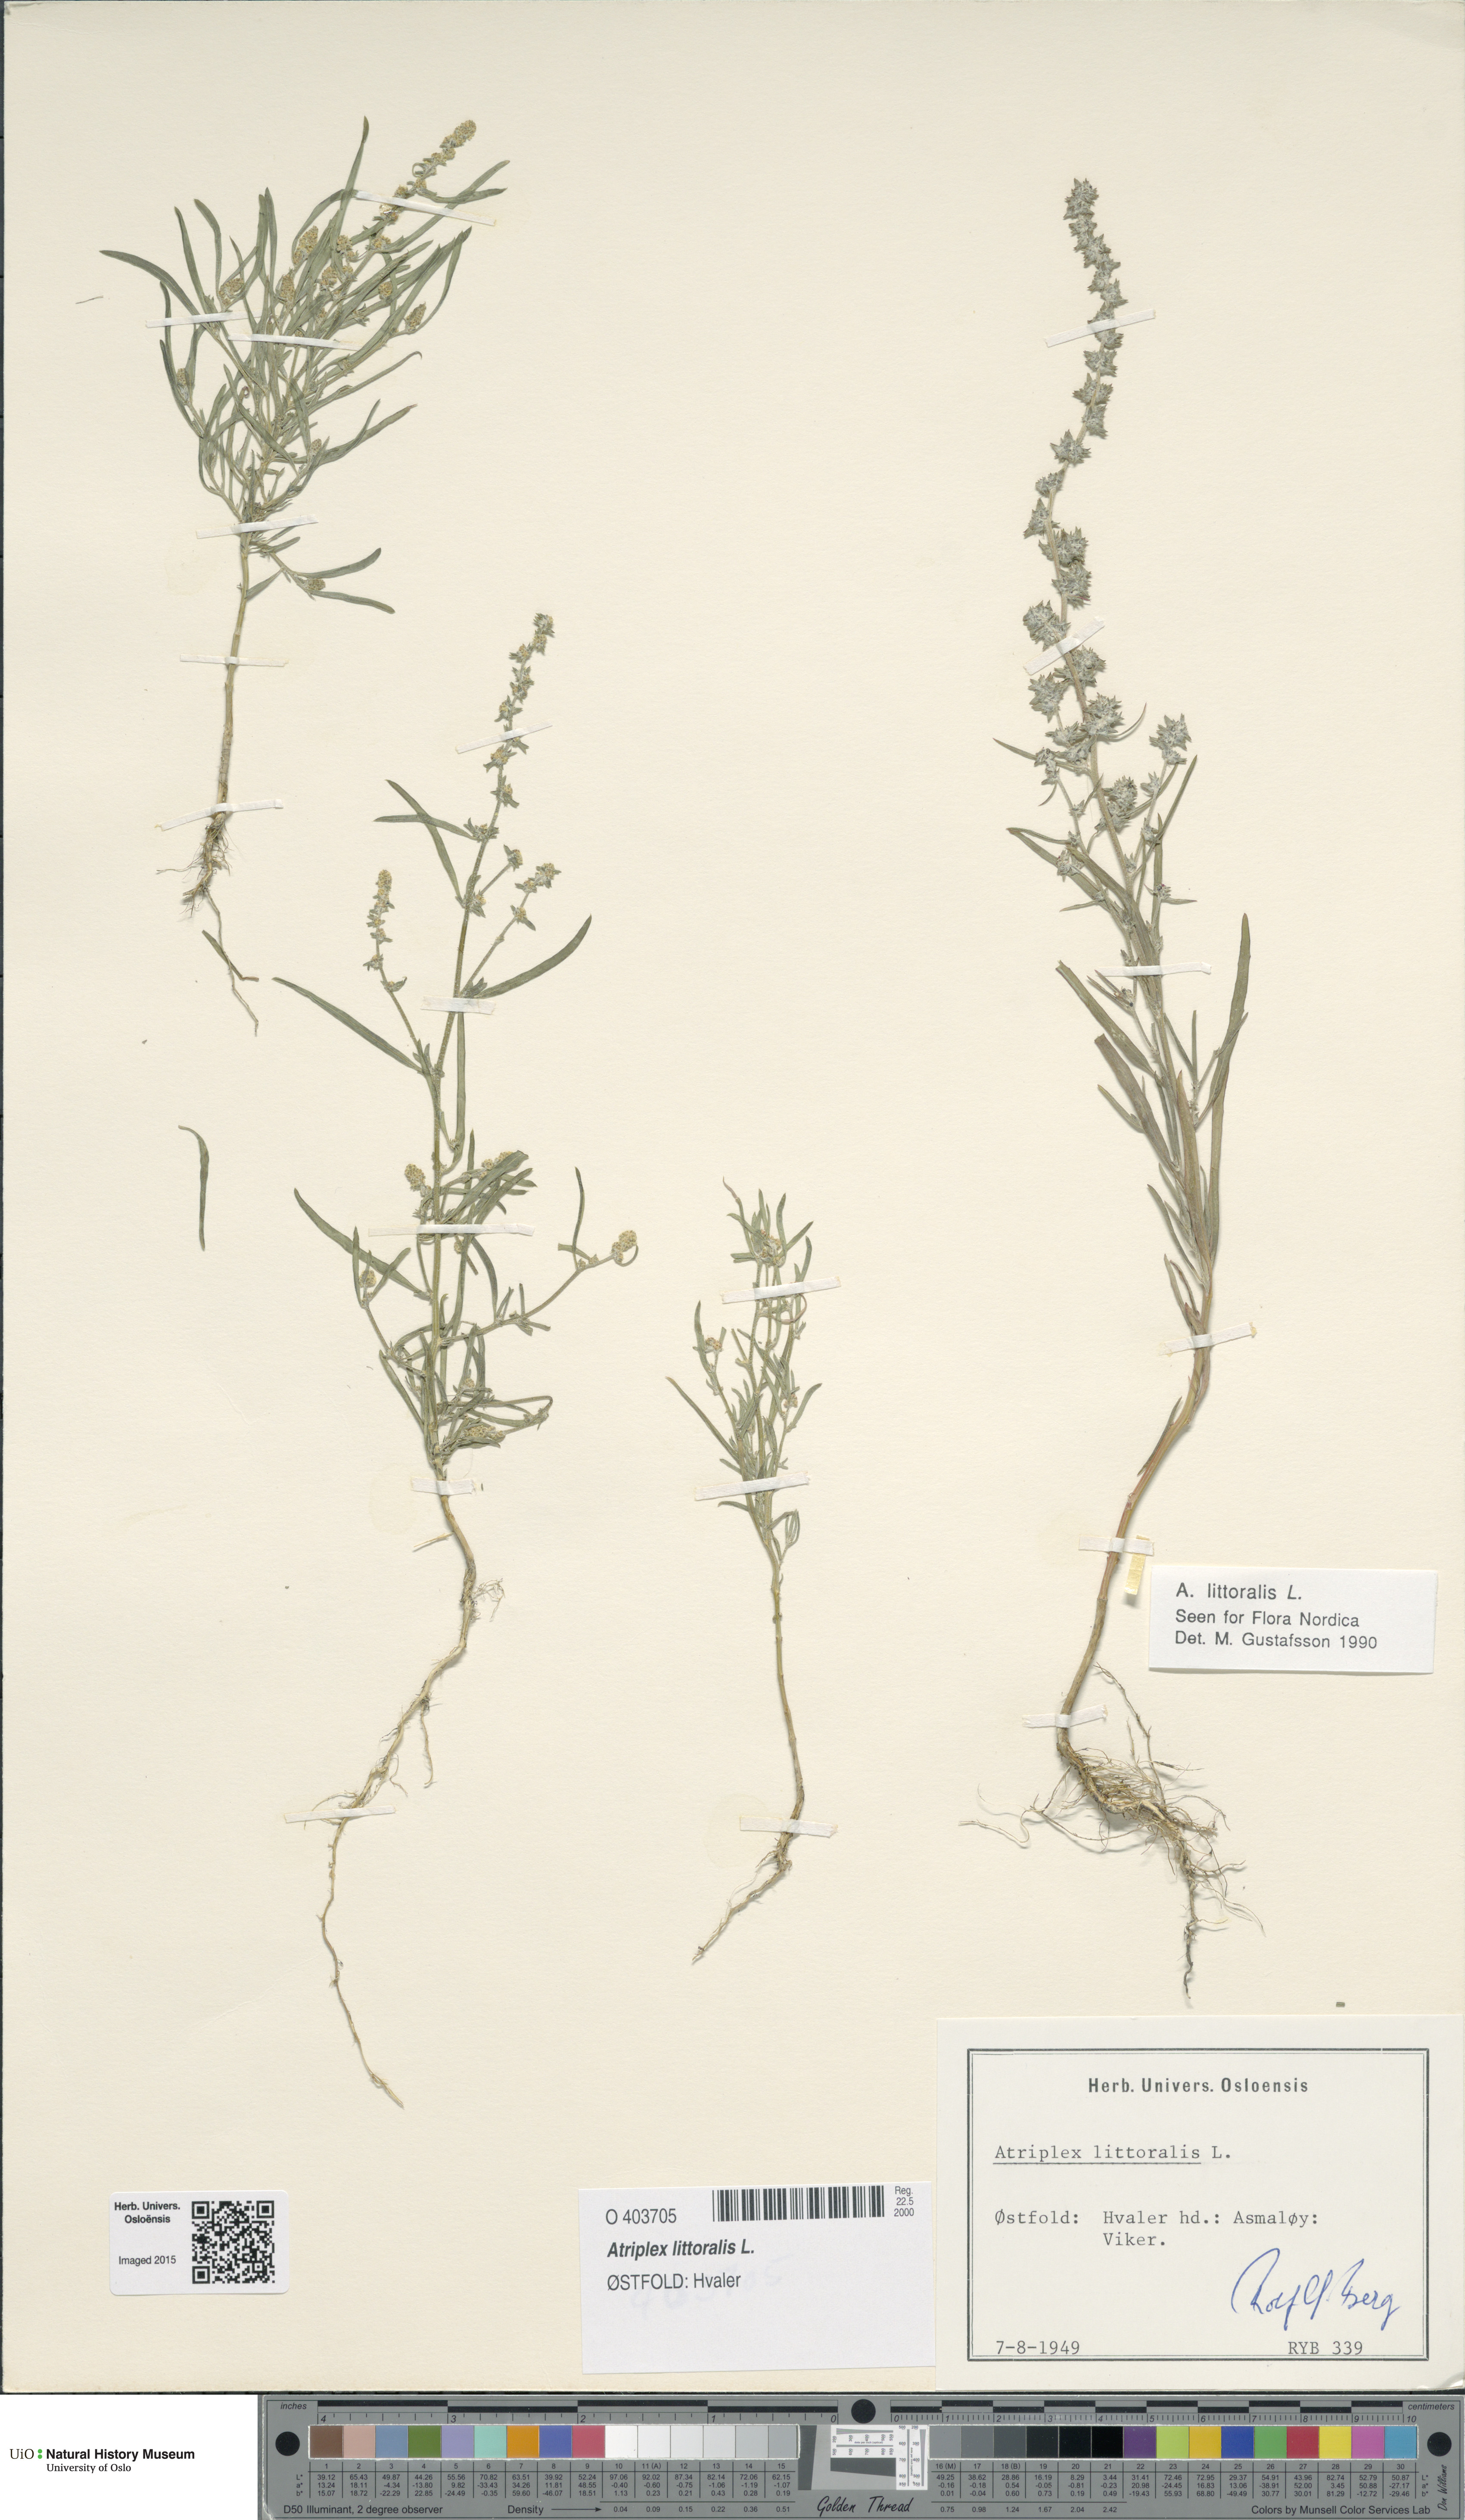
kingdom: Plantae
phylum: Tracheophyta
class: Magnoliopsida
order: Caryophyllales
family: Amaranthaceae
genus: Atriplex
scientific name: Atriplex littoralis
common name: Grass-leaved orache
